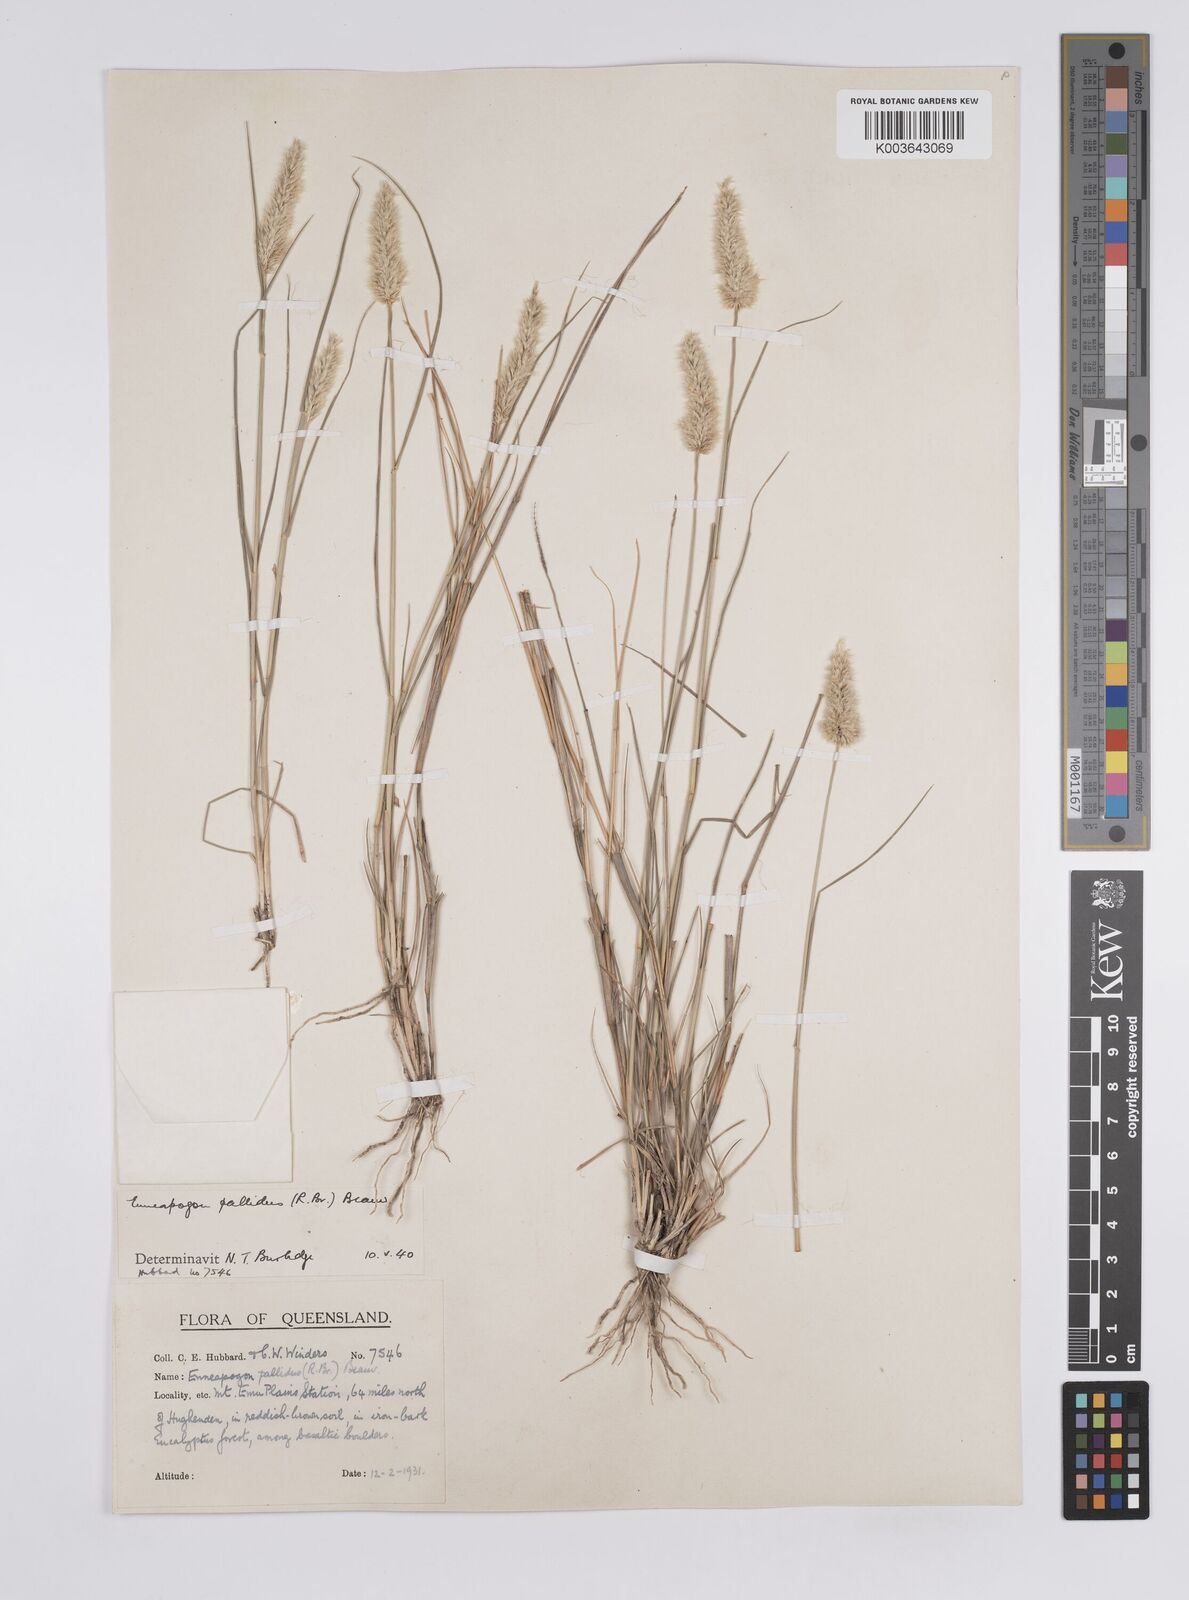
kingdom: Plantae
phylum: Tracheophyta
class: Liliopsida
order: Poales
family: Poaceae
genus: Enneapogon
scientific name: Enneapogon pallidus
